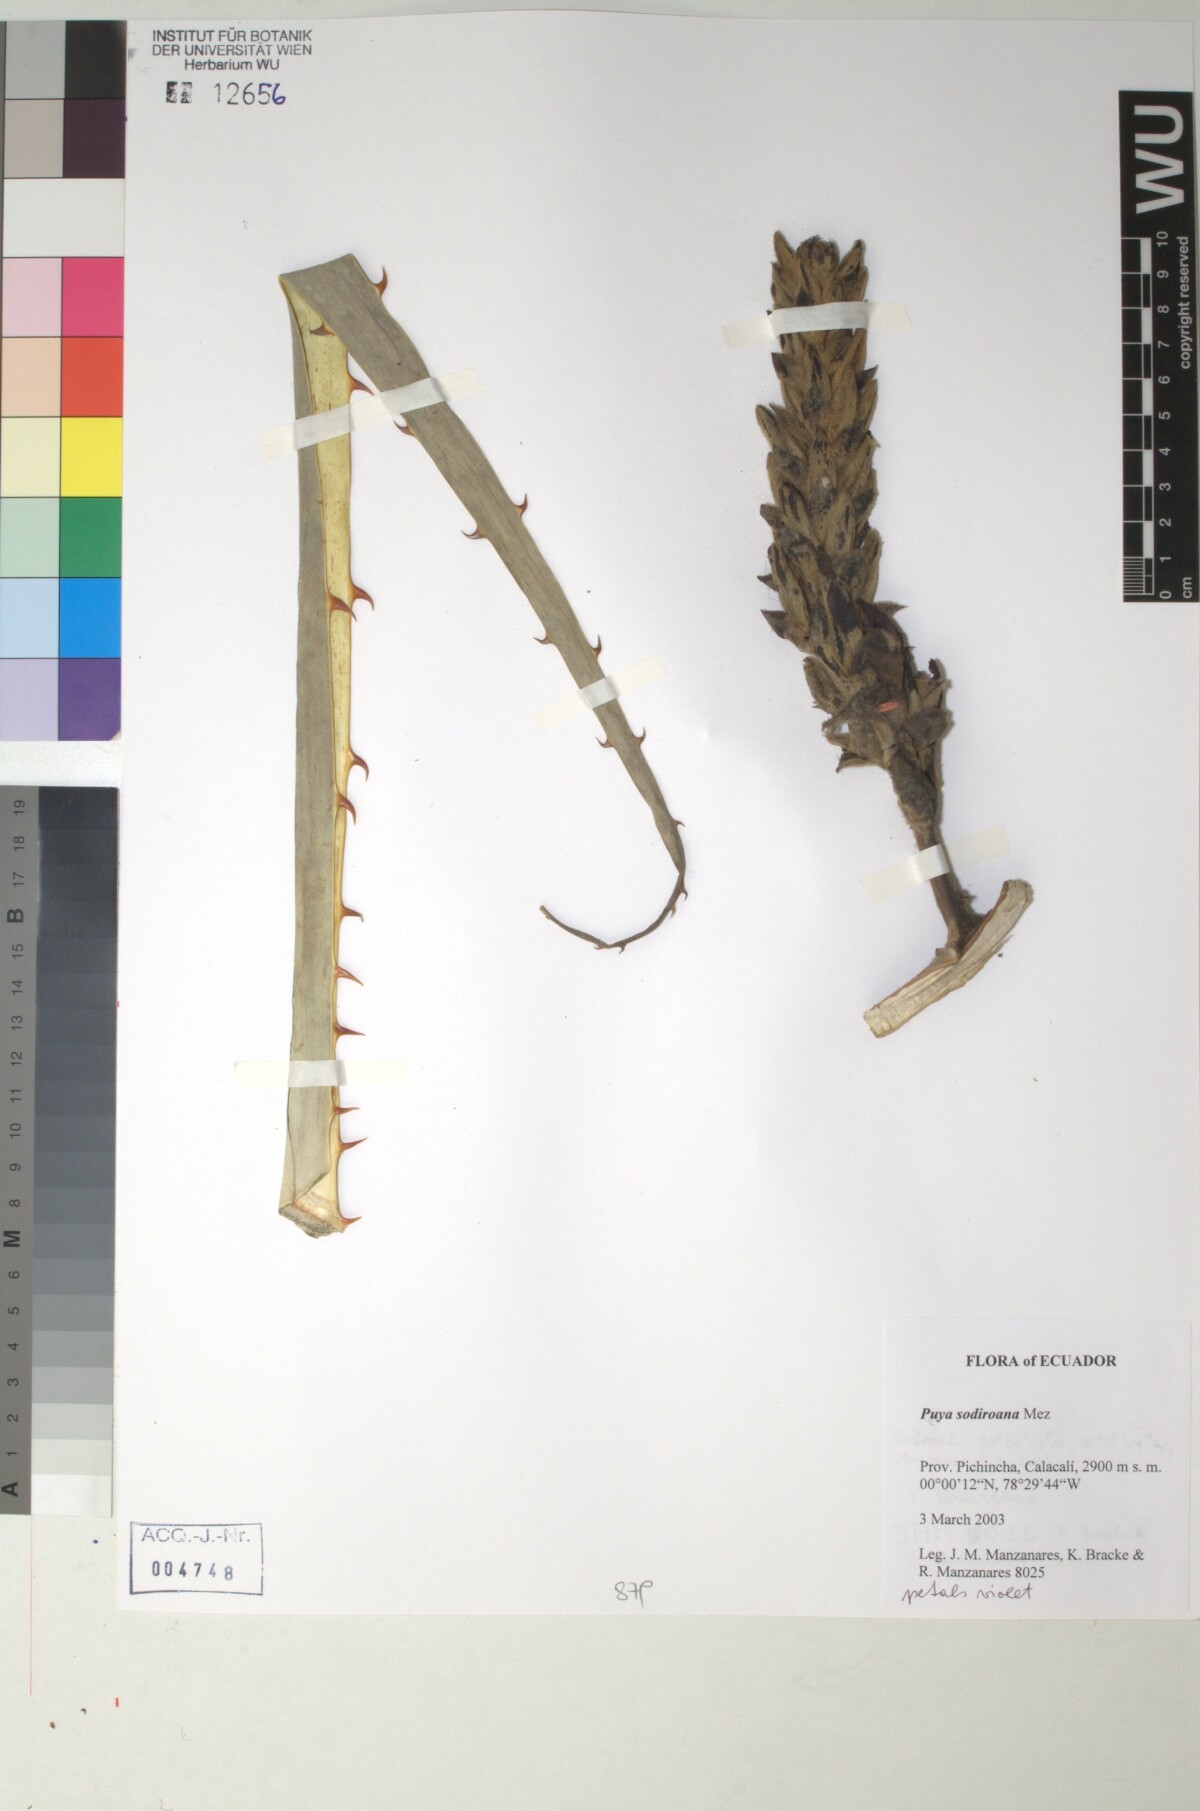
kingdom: Plantae
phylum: Tracheophyta
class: Liliopsida
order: Poales
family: Bromeliaceae
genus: Puya
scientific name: Puya sodiroana
